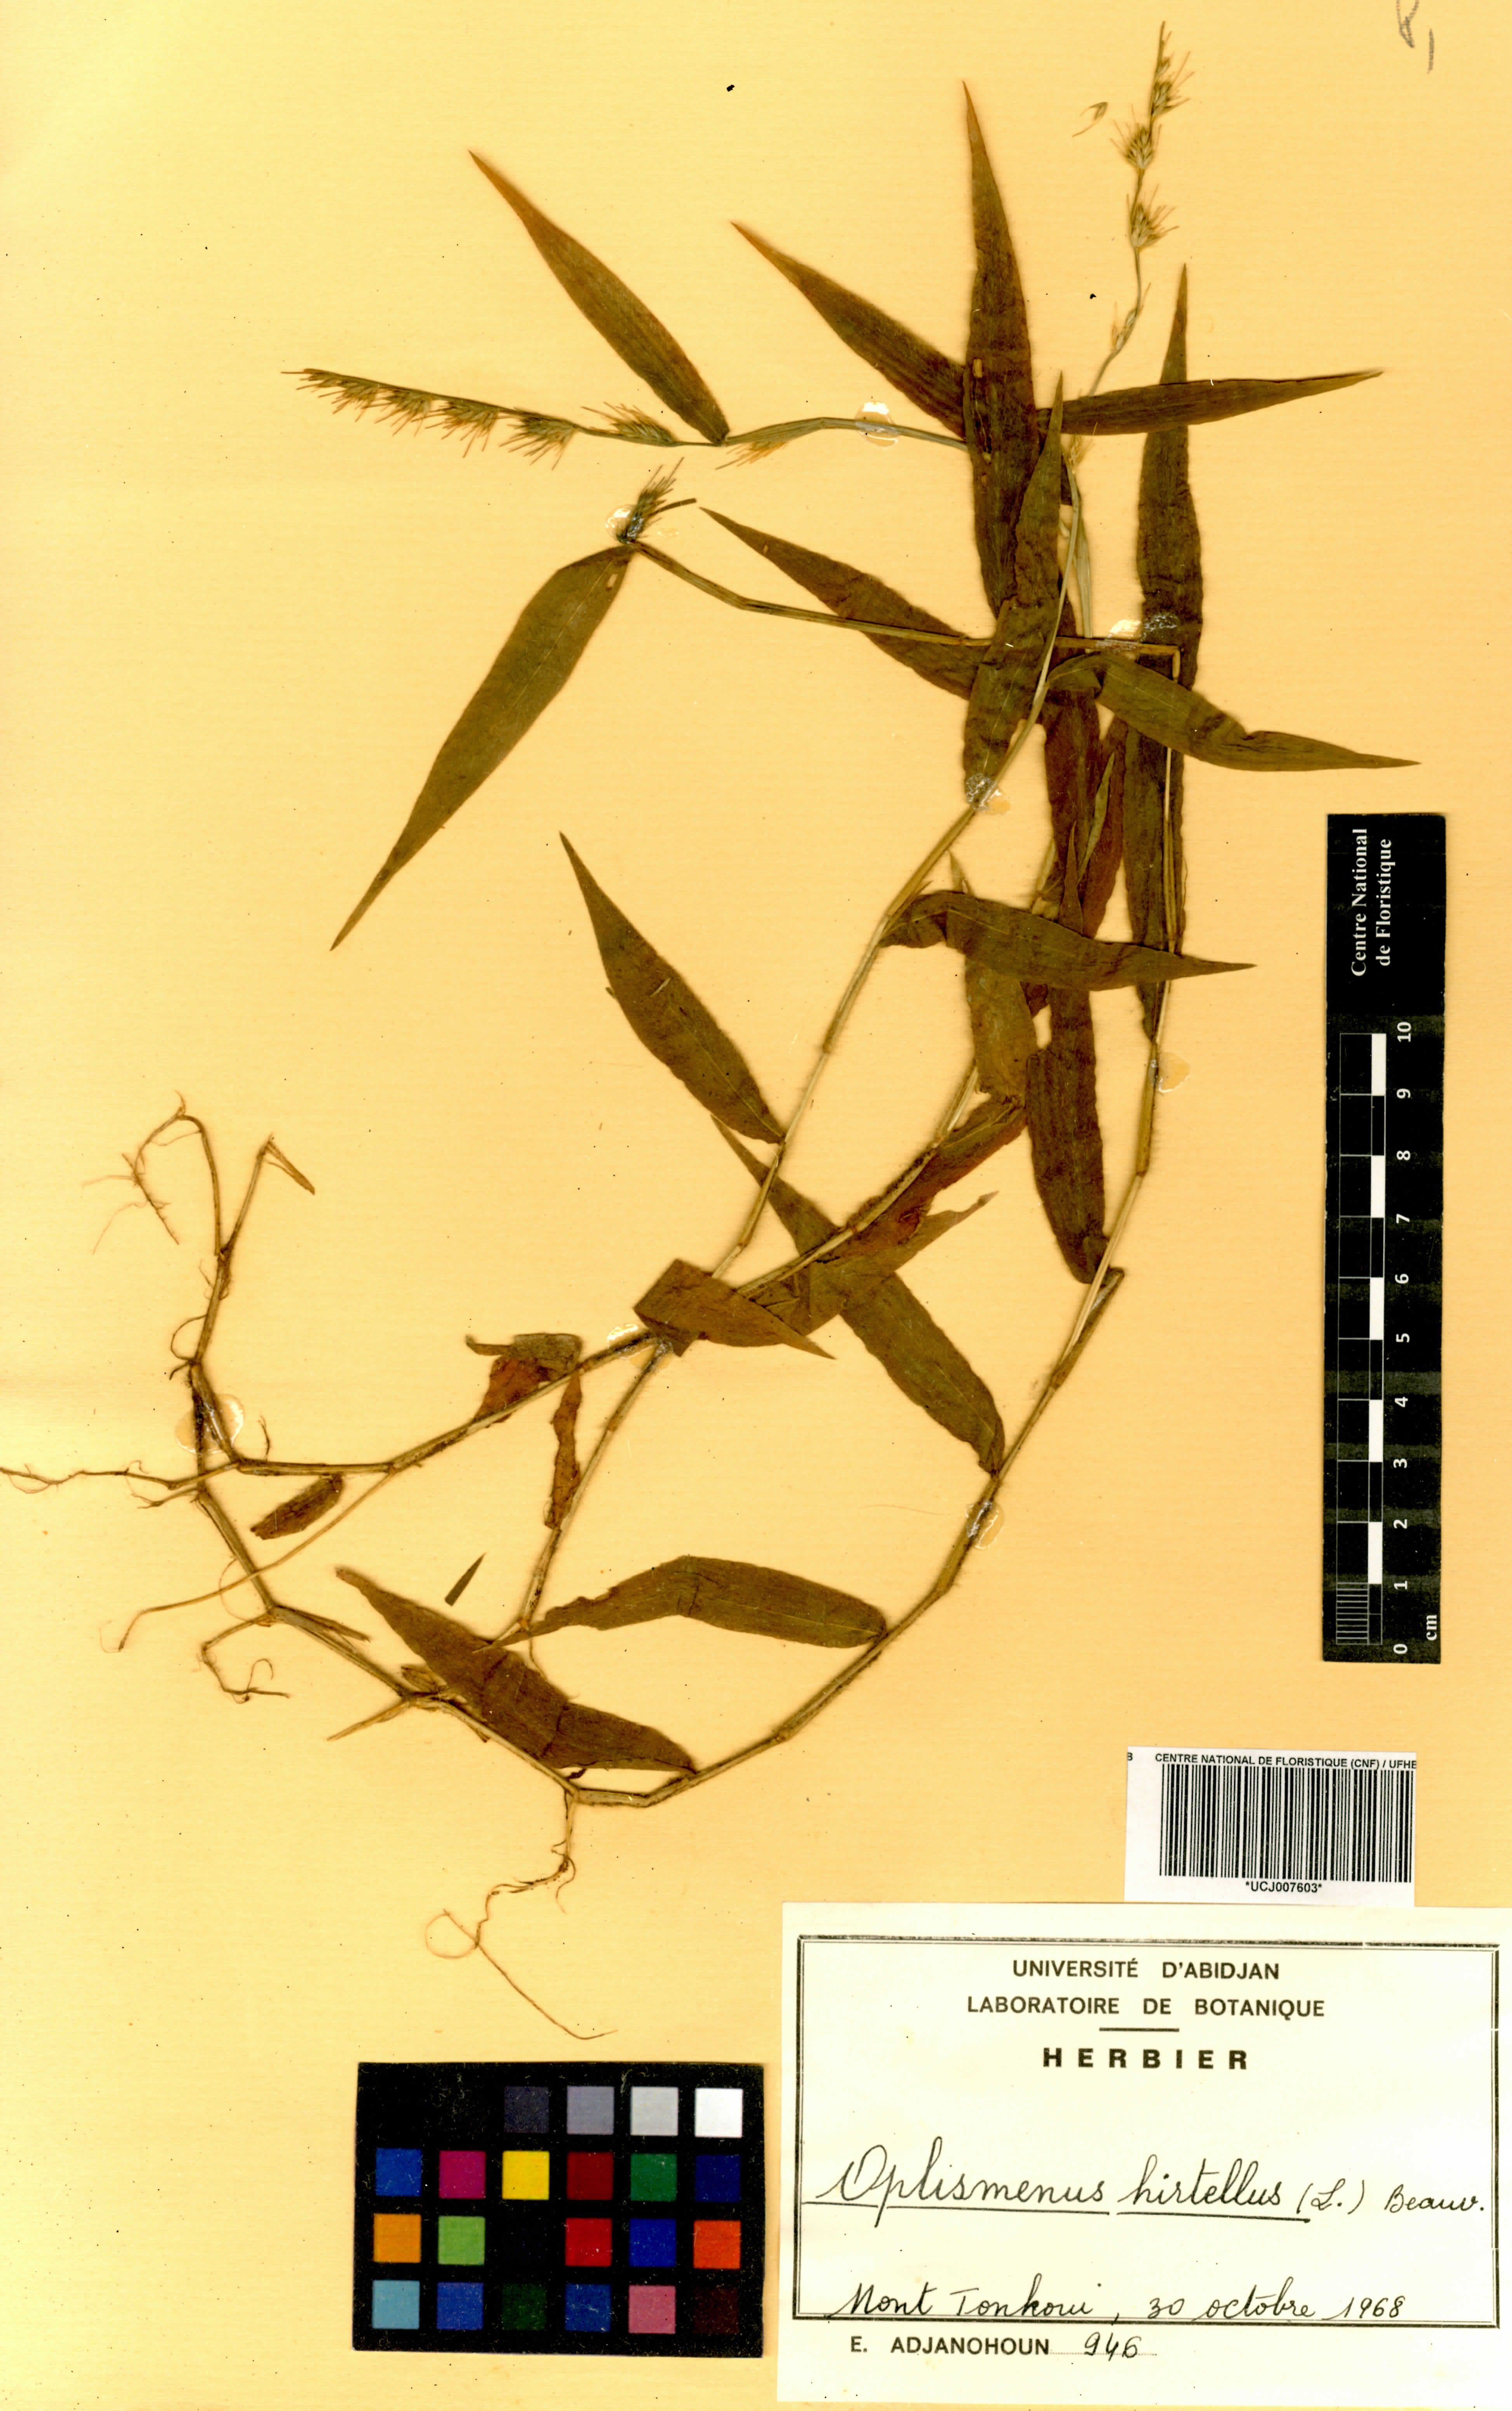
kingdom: Plantae
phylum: Tracheophyta
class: Liliopsida
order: Poales
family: Poaceae
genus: Oplismenus
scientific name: Oplismenus hirtellus
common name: Basketgrass
